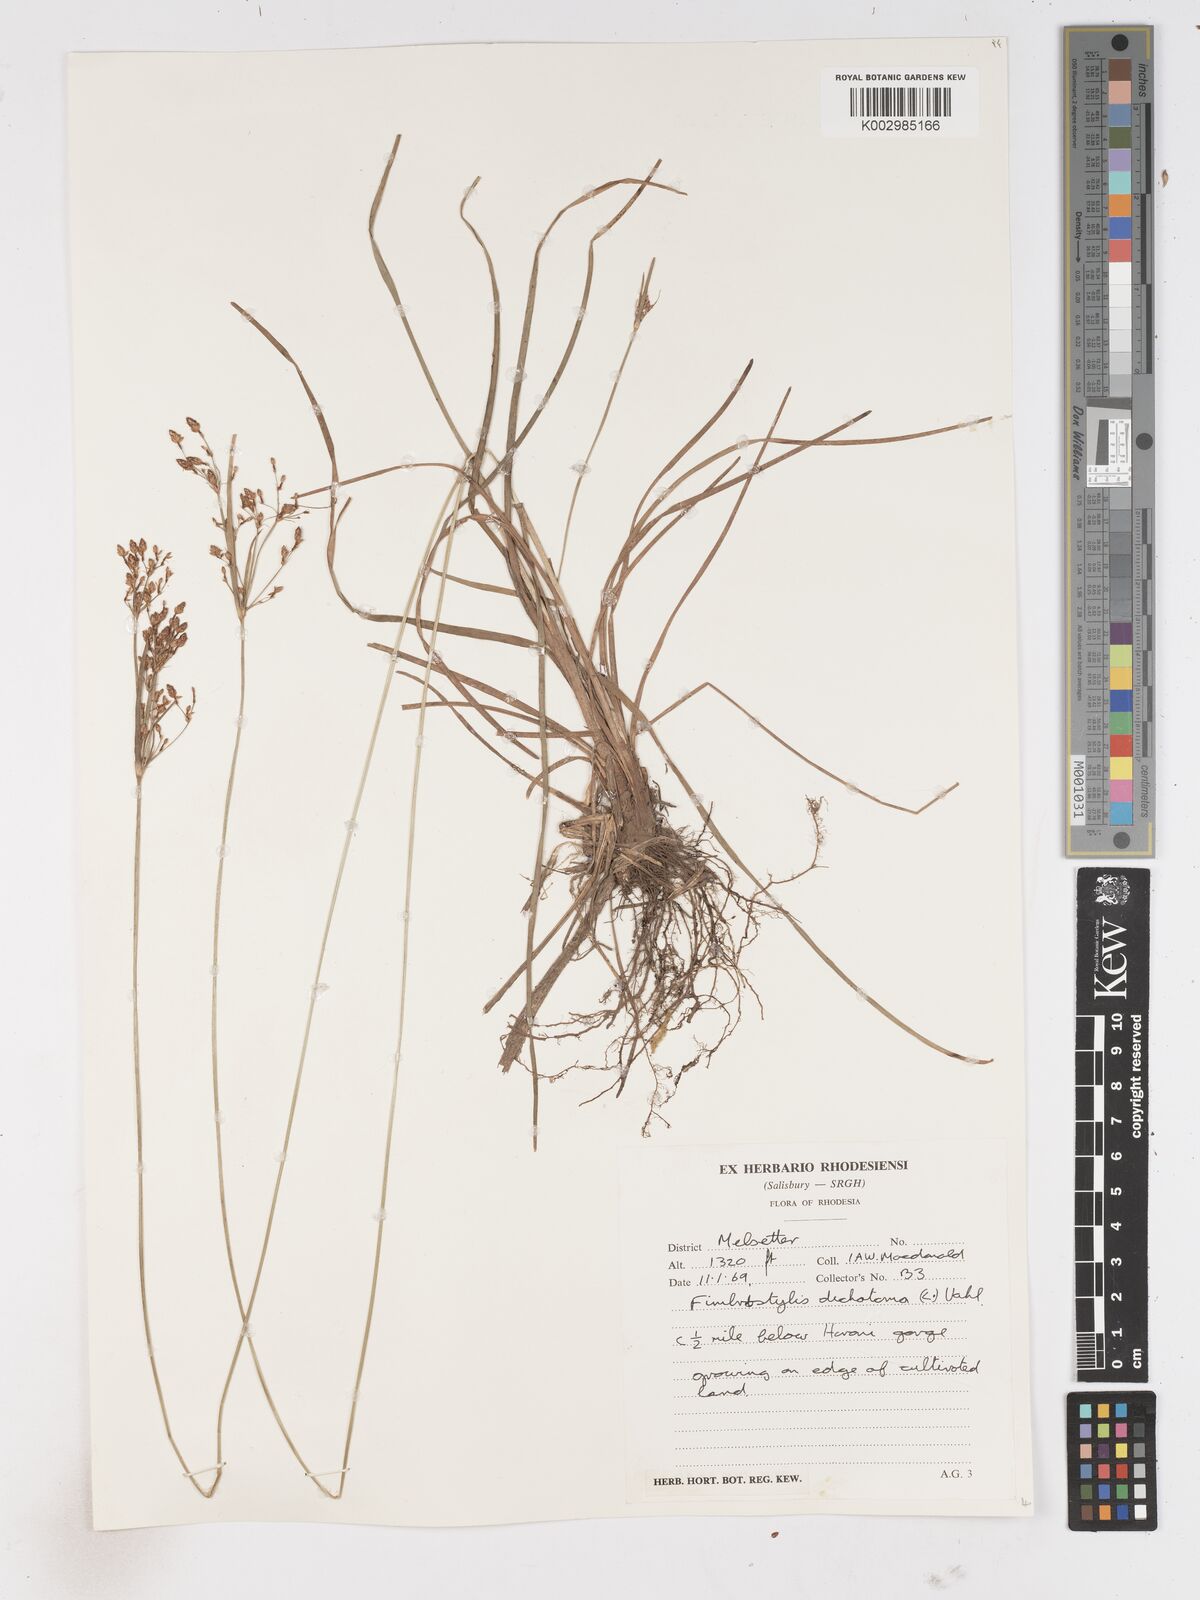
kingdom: Plantae
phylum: Tracheophyta
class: Liliopsida
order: Poales
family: Cyperaceae
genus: Fimbristylis
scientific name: Fimbristylis dichotoma
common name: Forked fimbry
